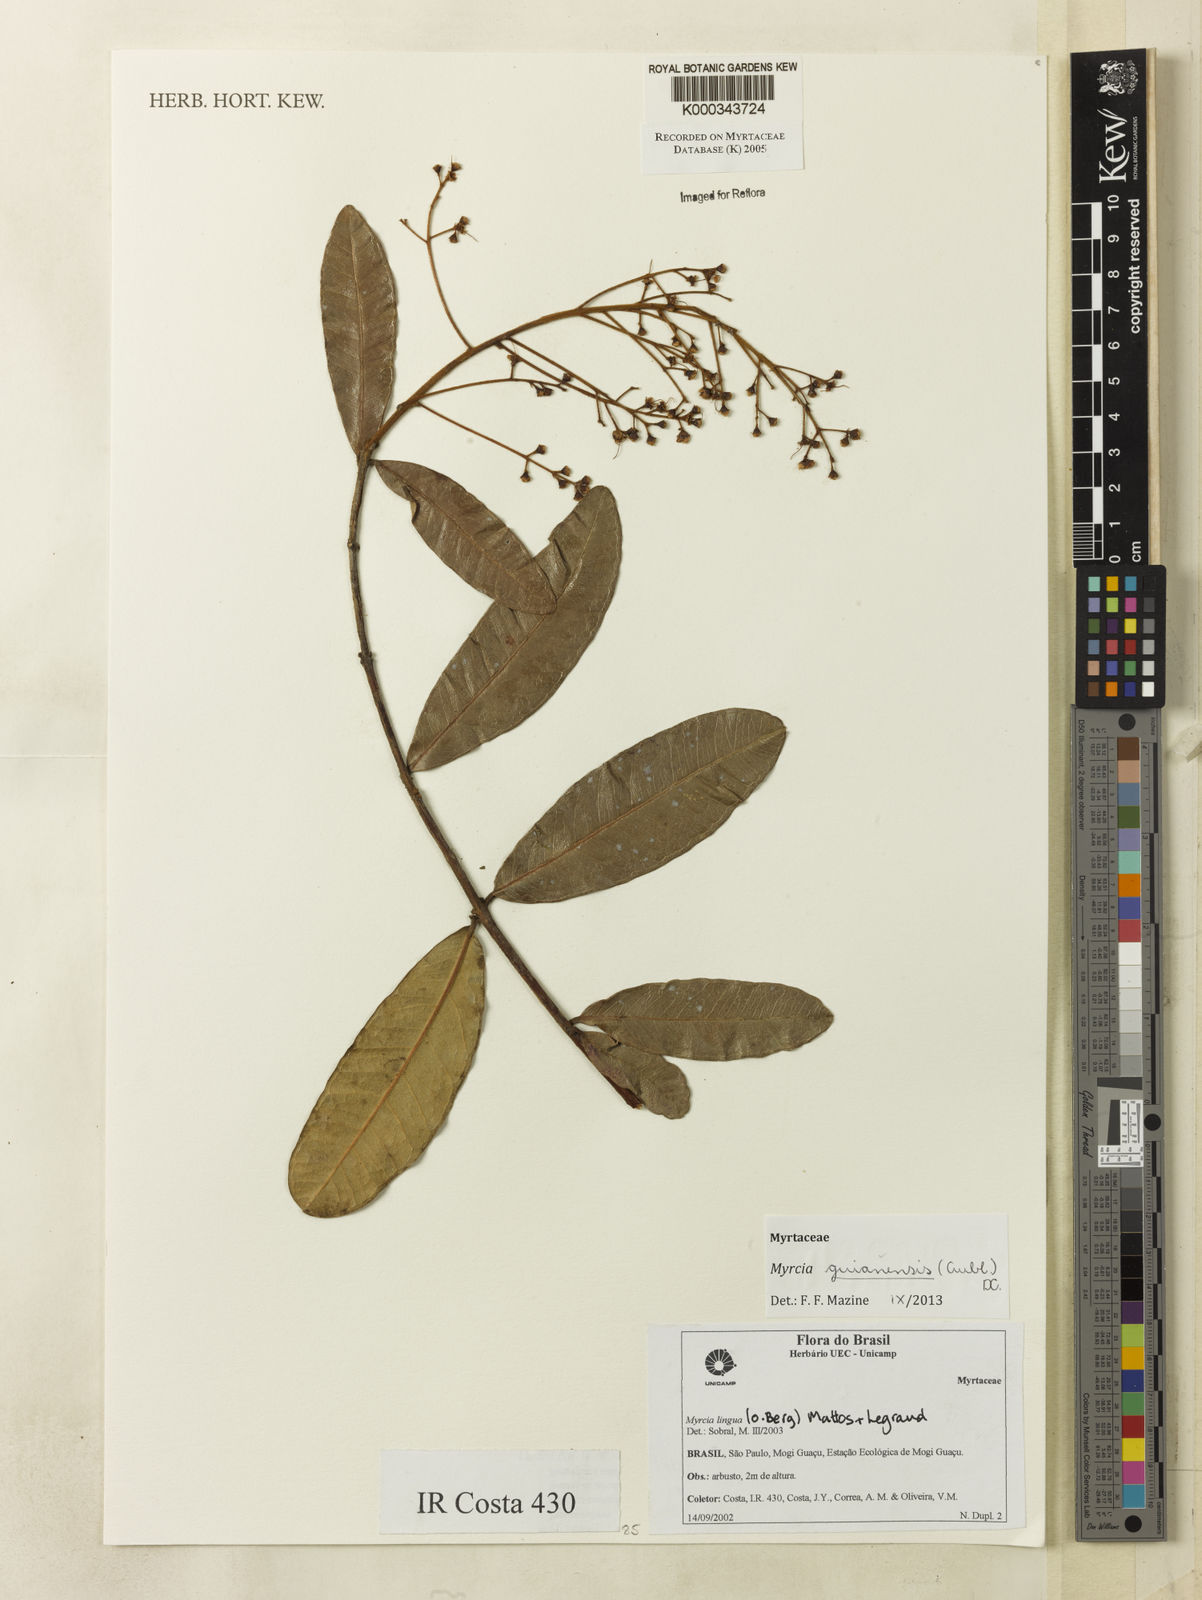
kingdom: Plantae
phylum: Tracheophyta
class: Magnoliopsida
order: Myrtales
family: Myrtaceae
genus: Myrcia
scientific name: Myrcia guianensis
